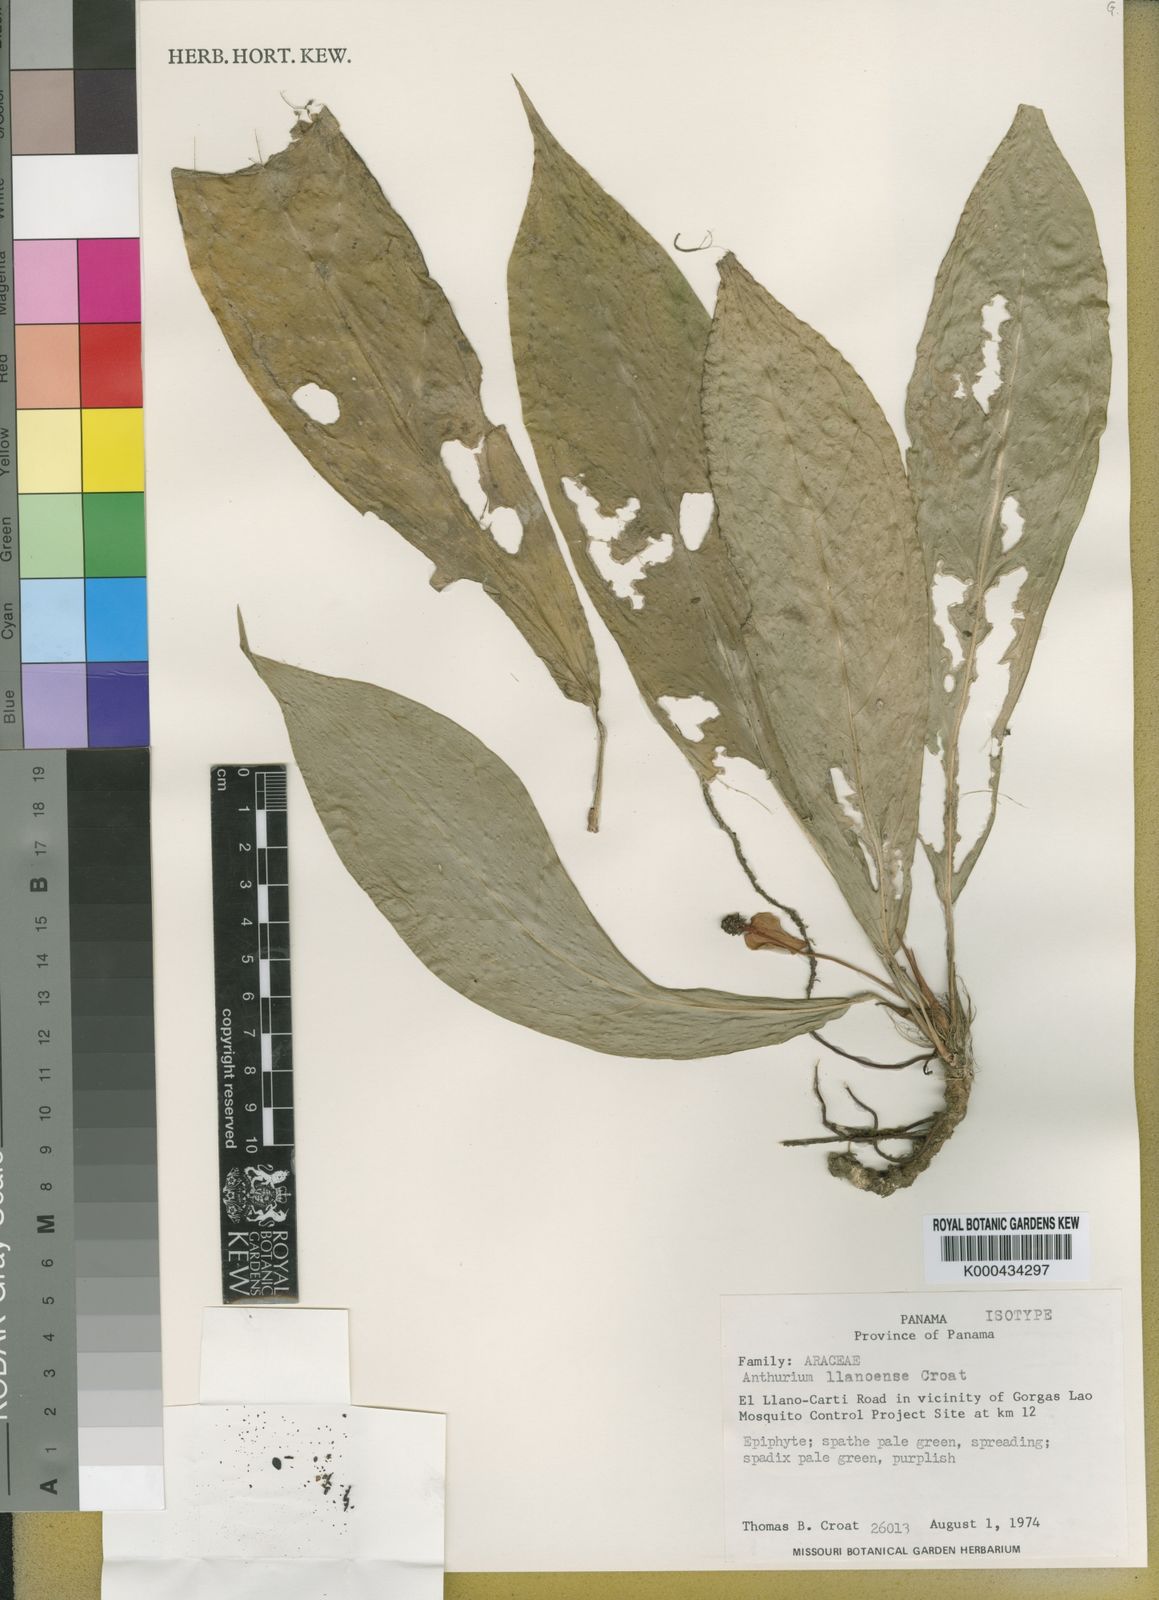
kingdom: Plantae
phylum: Tracheophyta
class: Liliopsida
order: Alismatales
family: Araceae
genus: Anthurium
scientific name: Anthurium llanense
